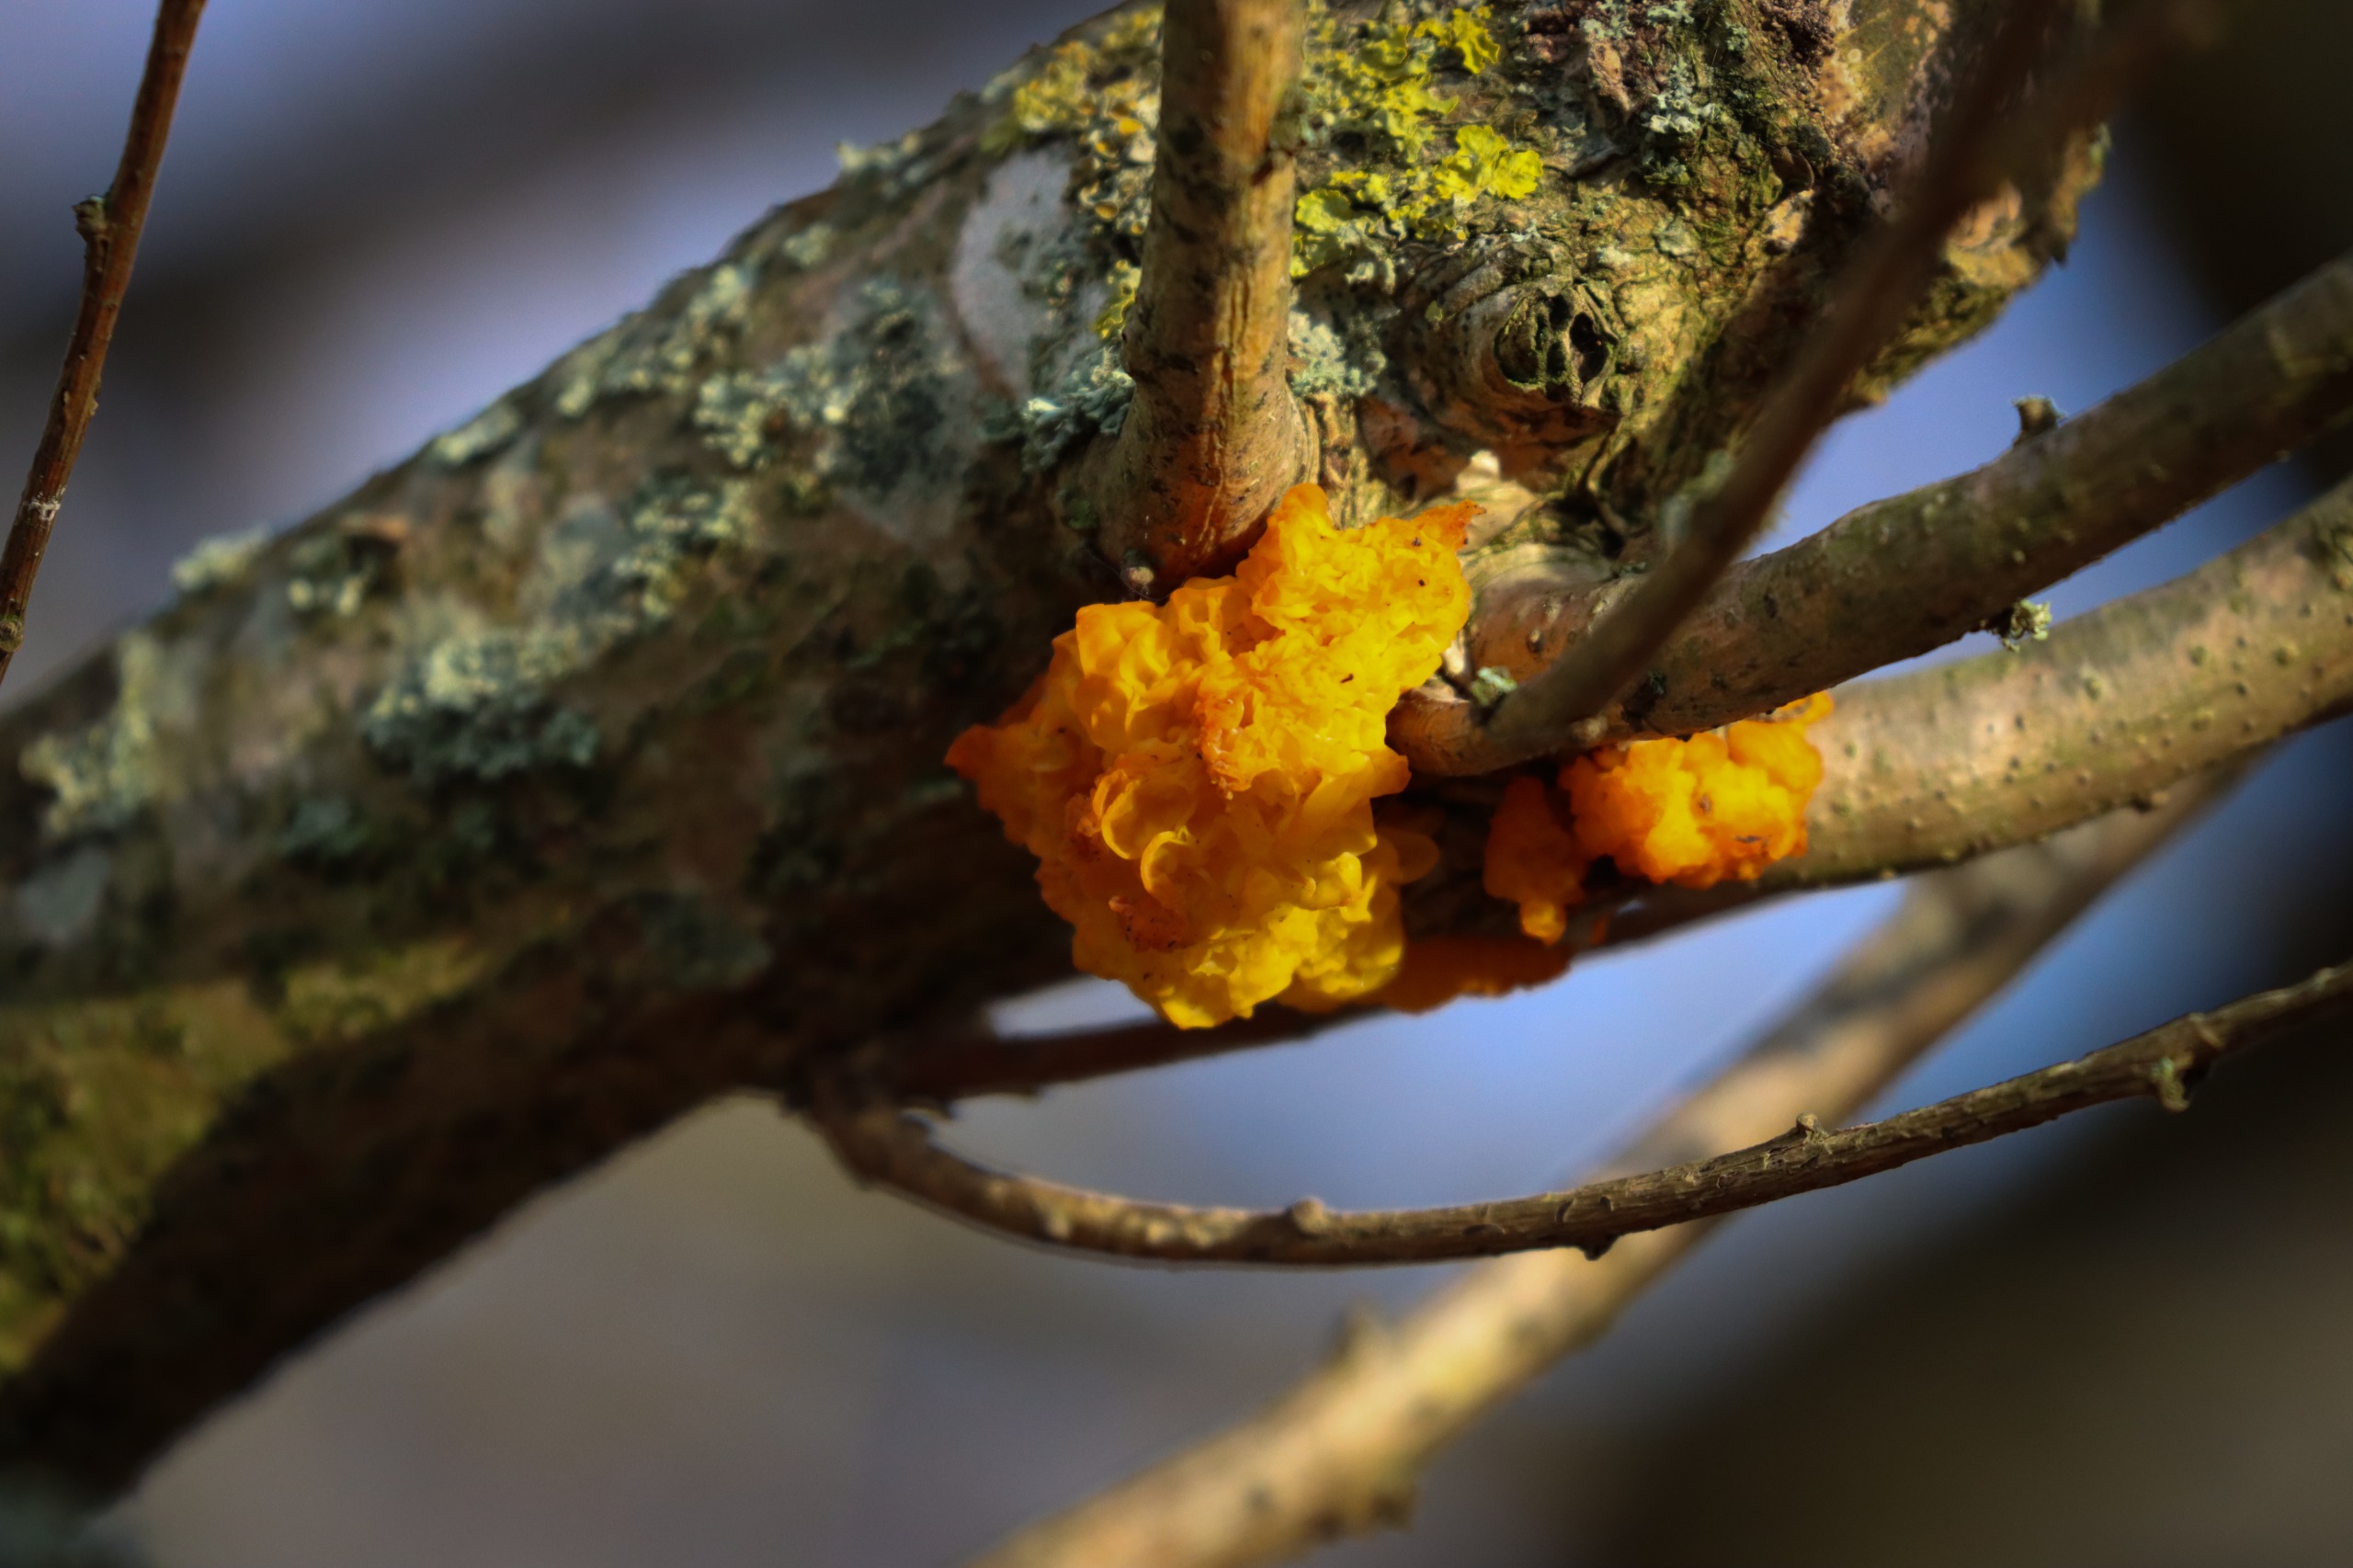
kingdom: Fungi
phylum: Basidiomycota
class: Tremellomycetes
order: Tremellales
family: Tremellaceae
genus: Tremella
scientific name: Tremella mesenterica
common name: Gul bævresvamp
